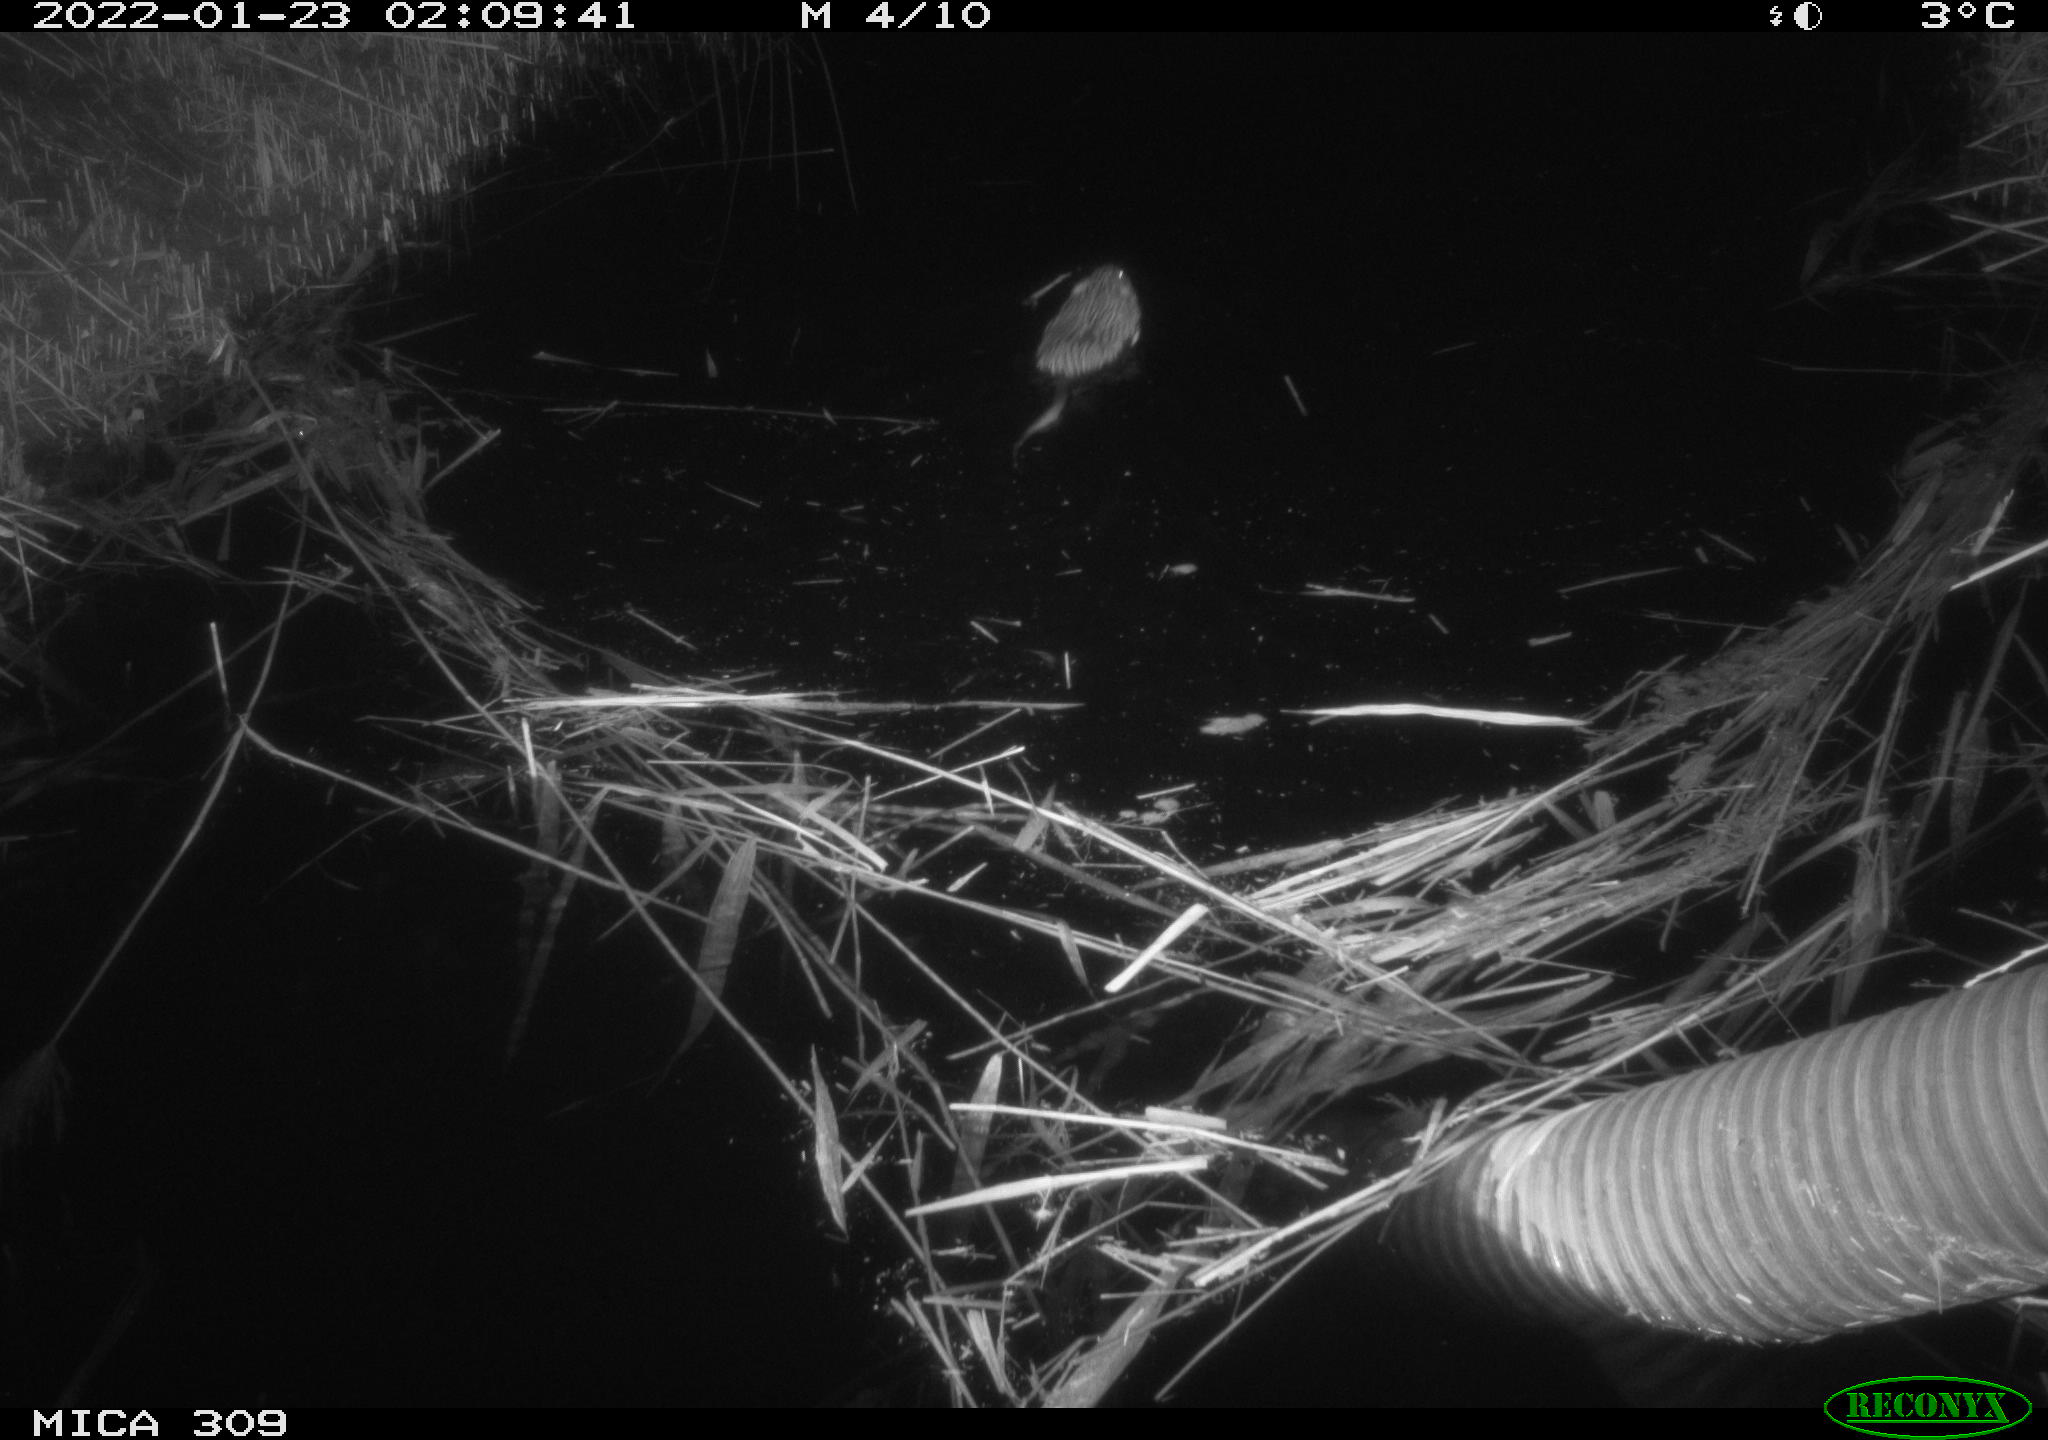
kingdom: Animalia
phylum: Chordata
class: Mammalia
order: Rodentia
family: Cricetidae
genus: Ondatra
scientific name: Ondatra zibethicus
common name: Muskrat
